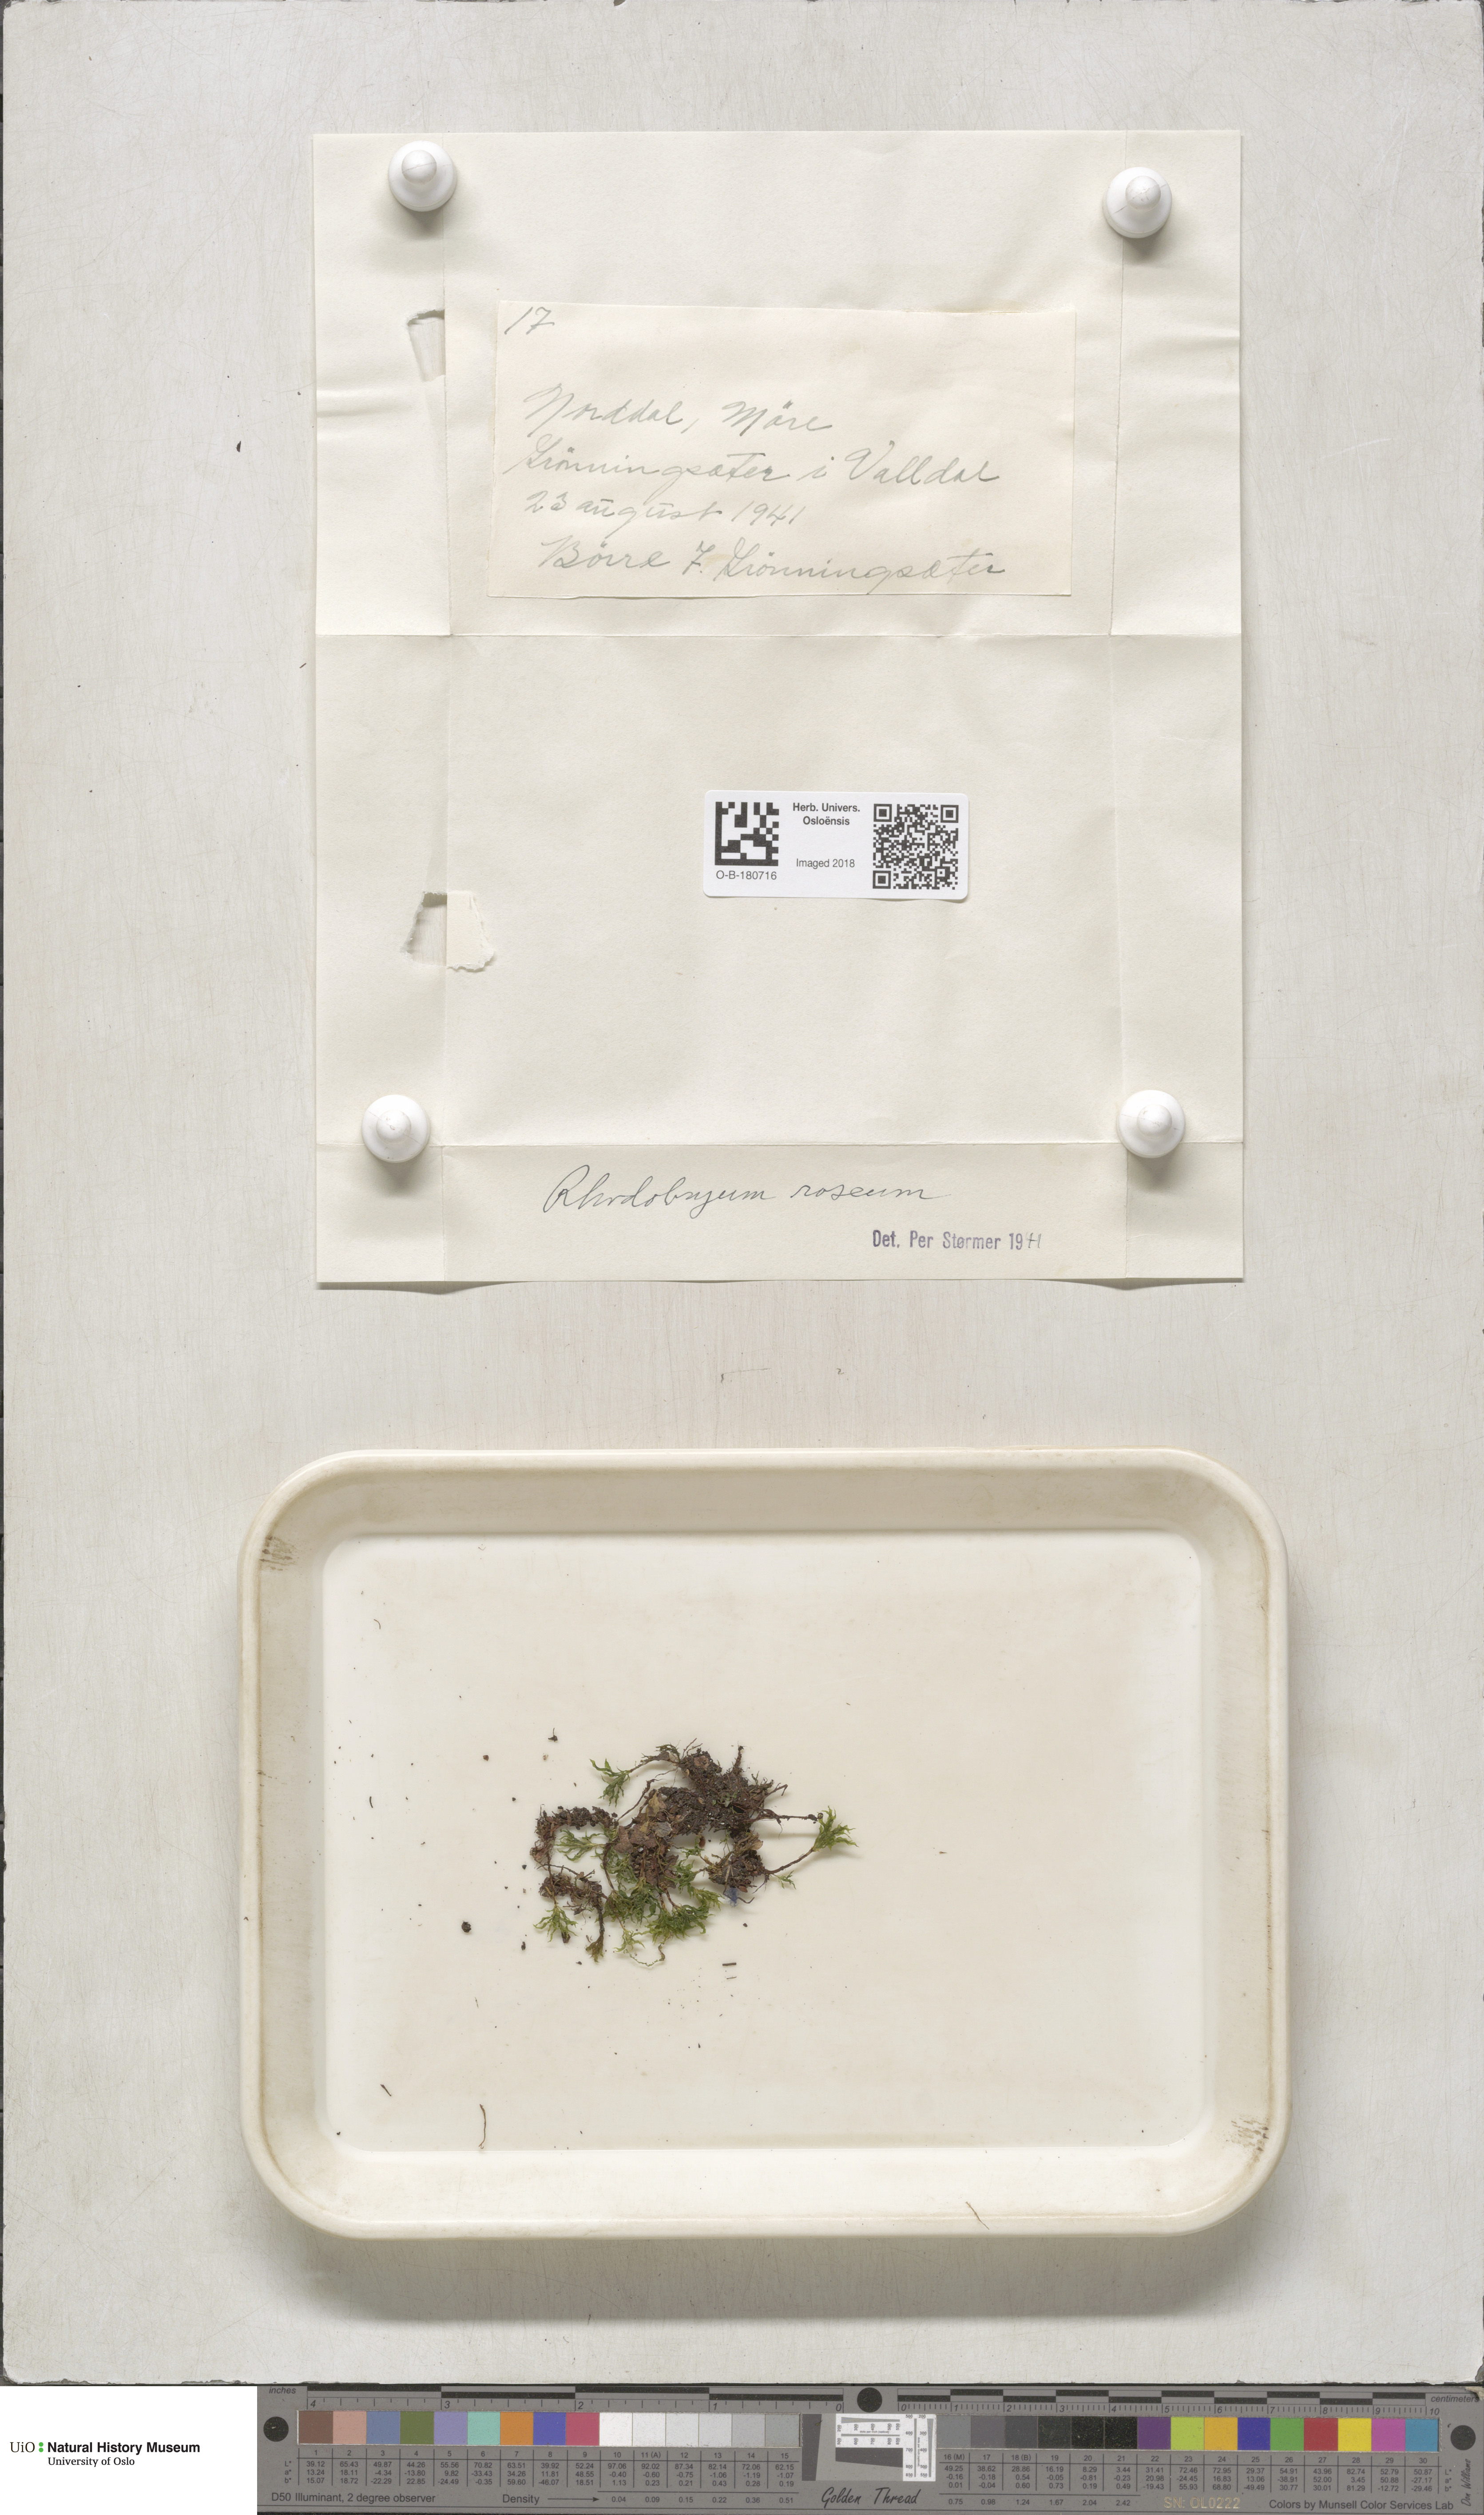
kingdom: Plantae
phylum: Bryophyta
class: Bryopsida
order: Bryales
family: Bryaceae
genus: Rhodobryum
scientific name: Rhodobryum roseum
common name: Rose-moss
